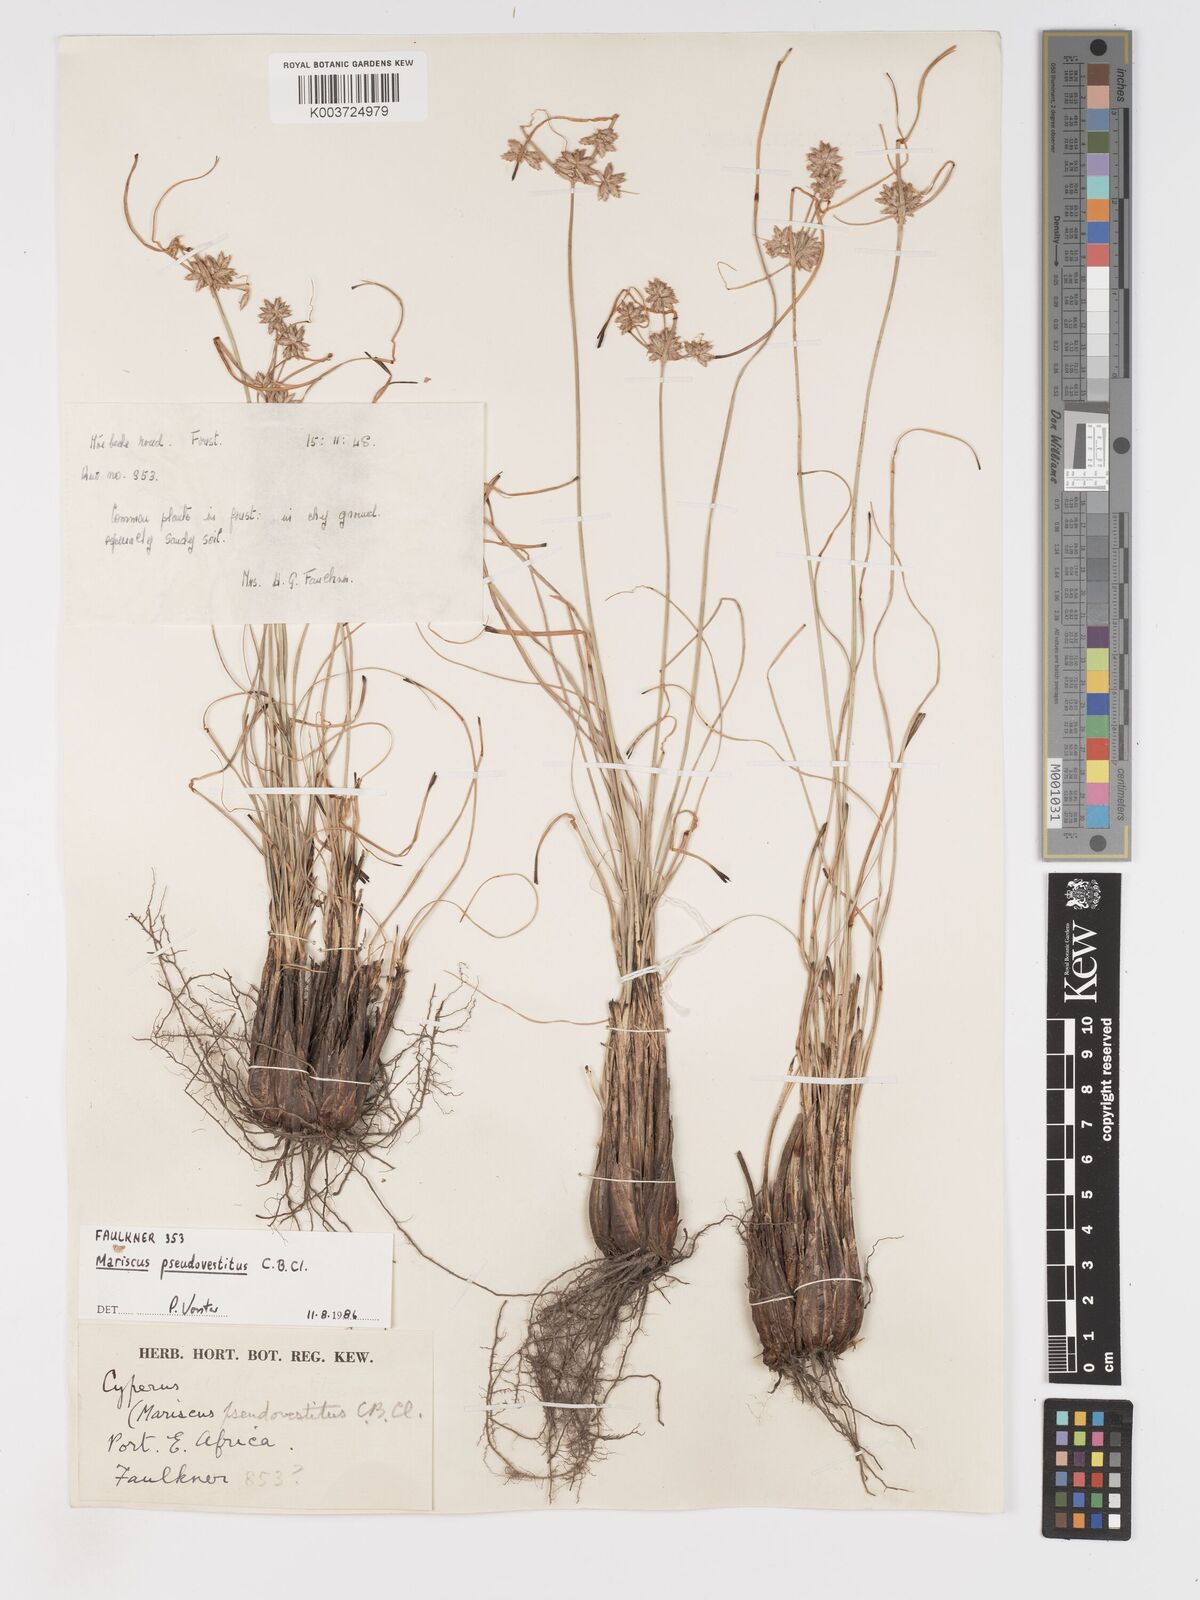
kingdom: Plantae
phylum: Tracheophyta
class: Liliopsida
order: Poales
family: Cyperaceae
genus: Cyperus
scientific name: Cyperus pseudovestitus
